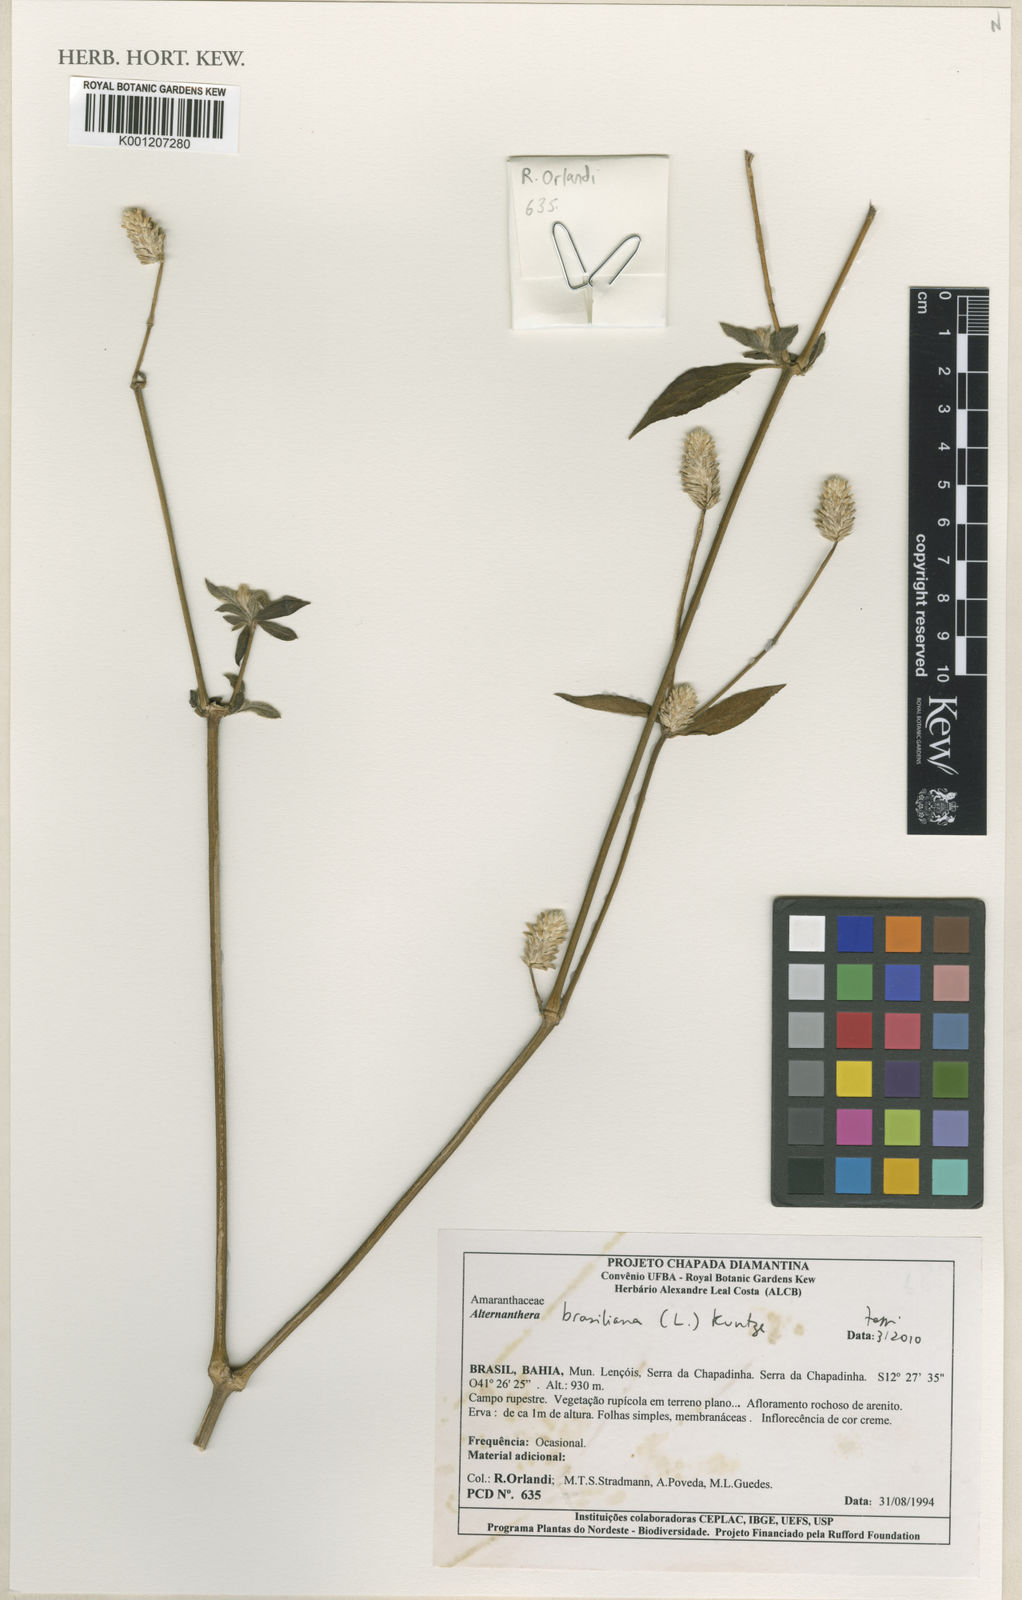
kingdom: Plantae
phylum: Tracheophyta
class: Magnoliopsida
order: Caryophyllales
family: Amaranthaceae
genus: Alternanthera
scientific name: Alternanthera brasiliana
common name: Brazilian joyweed
